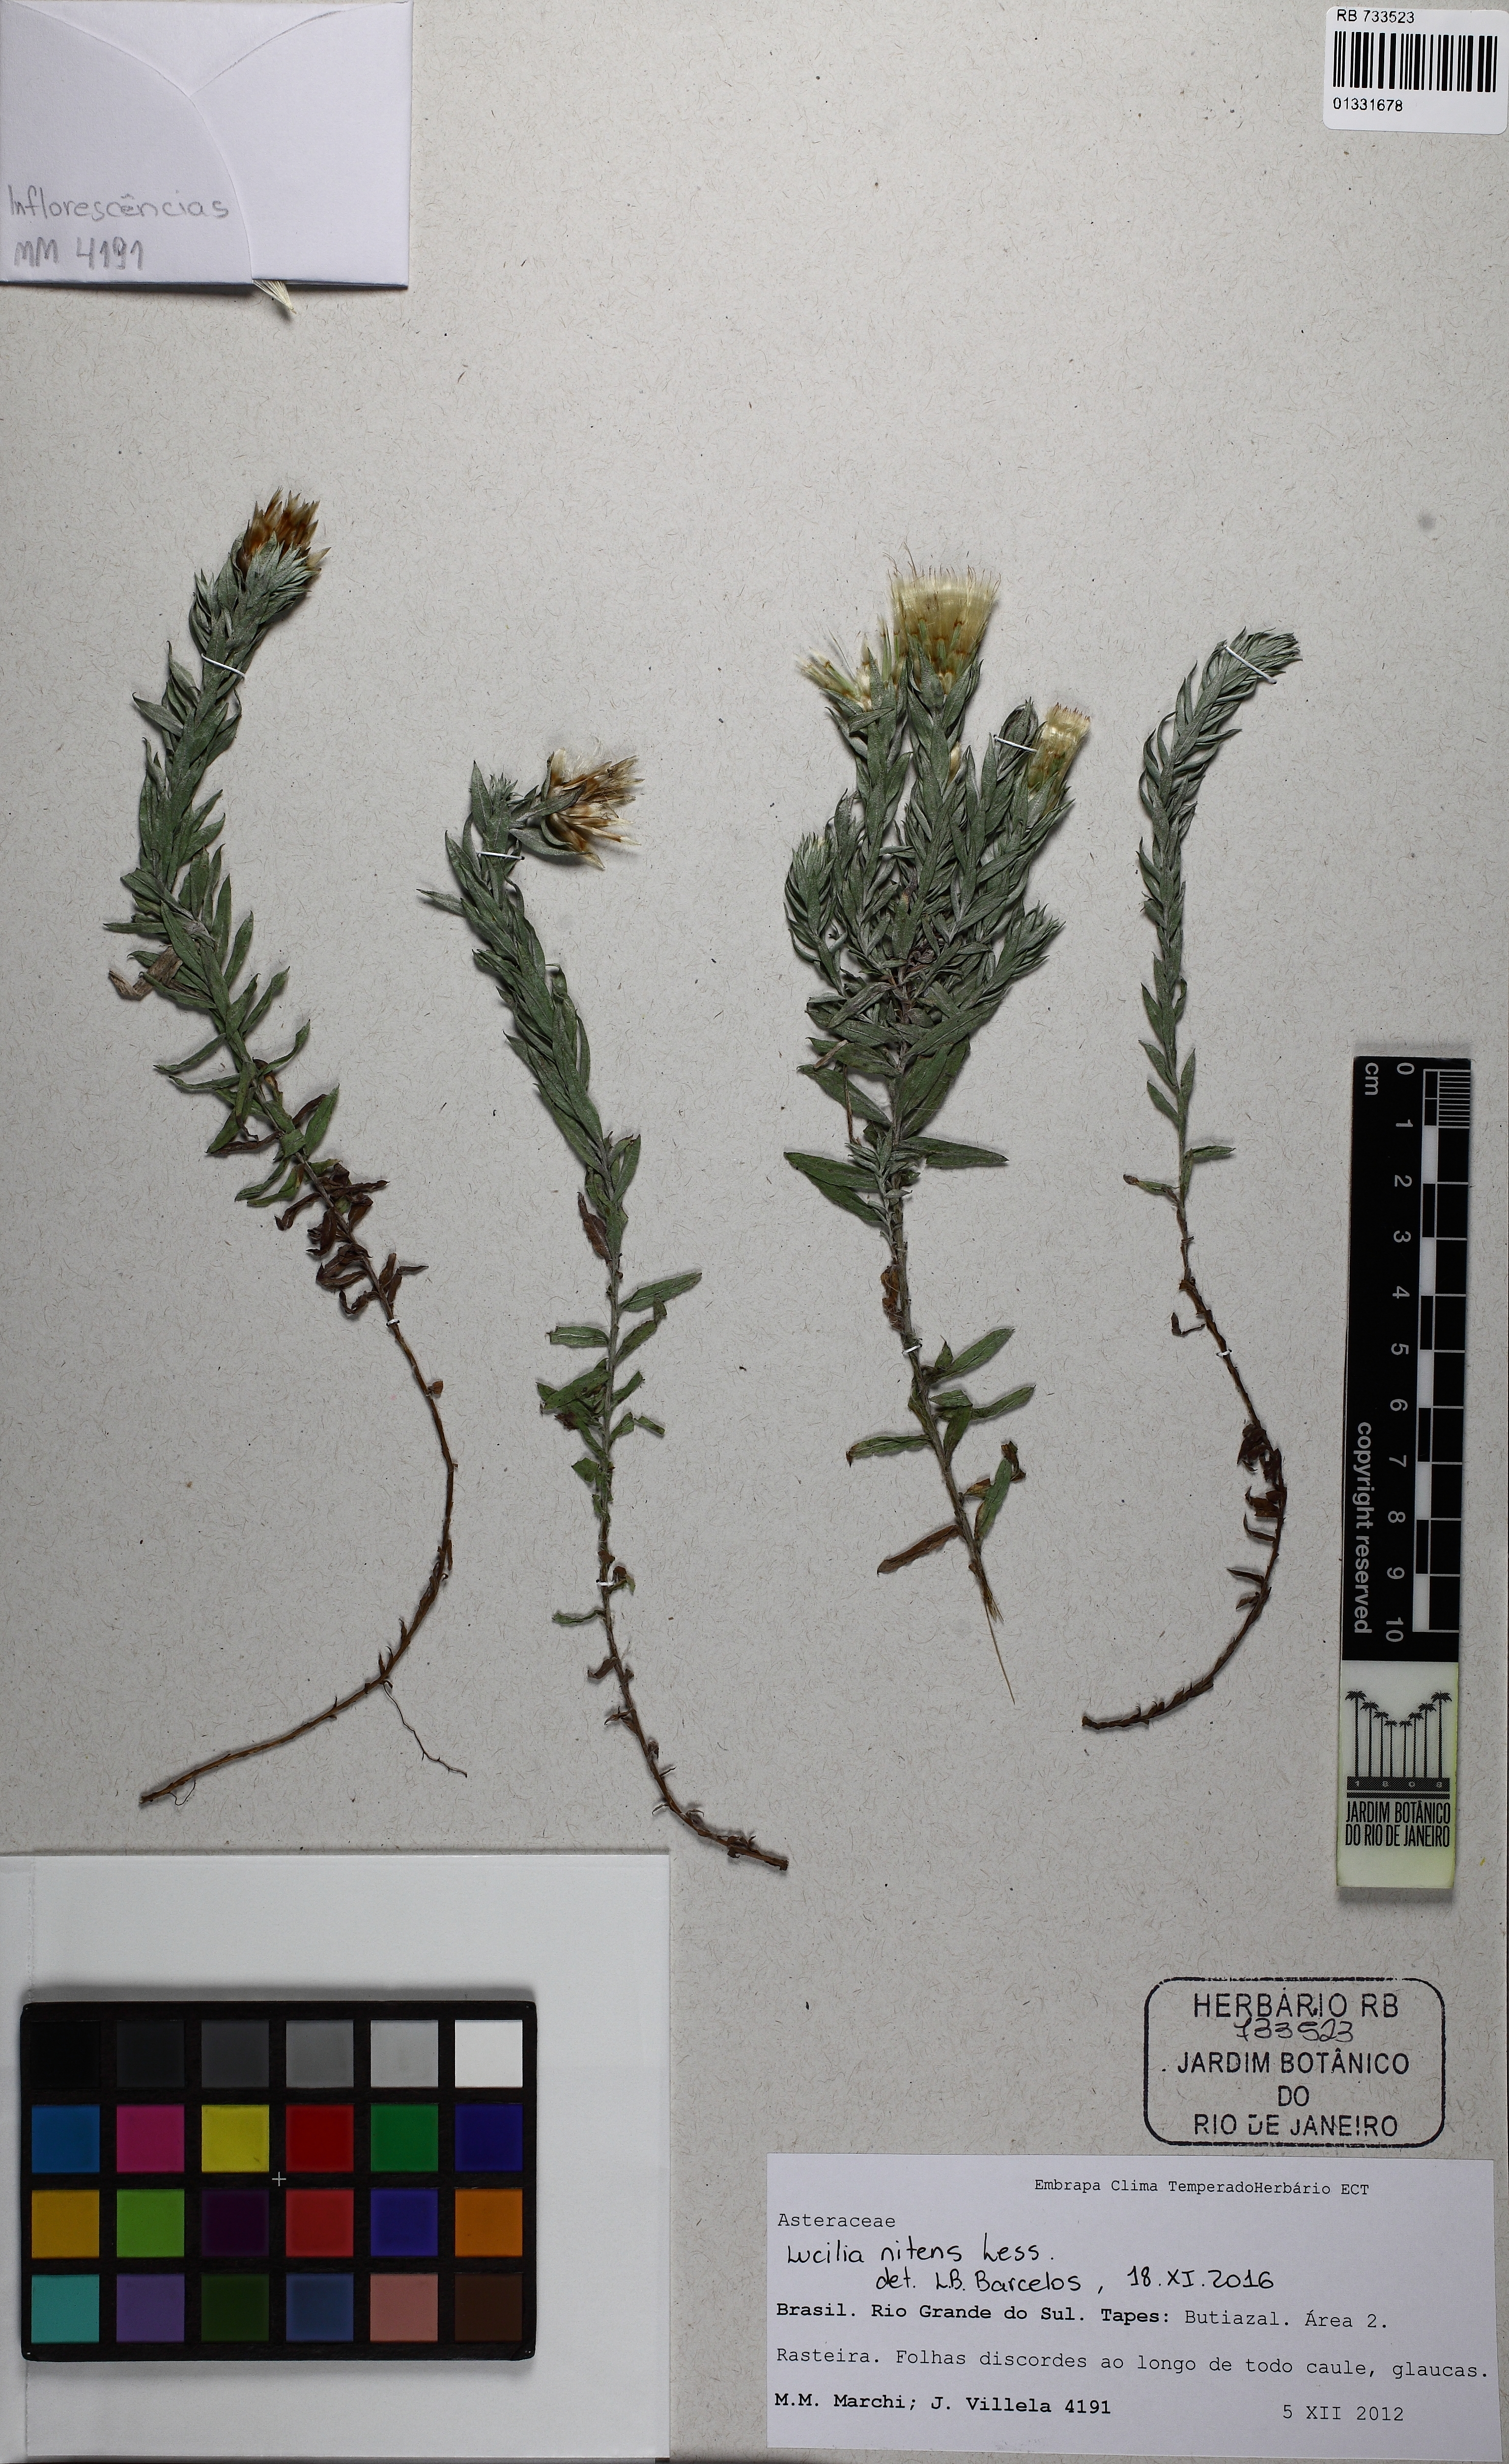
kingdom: Plantae
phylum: Tracheophyta
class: Magnoliopsida
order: Asterales
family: Asteraceae
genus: Lucilia
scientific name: Lucilia nitens
